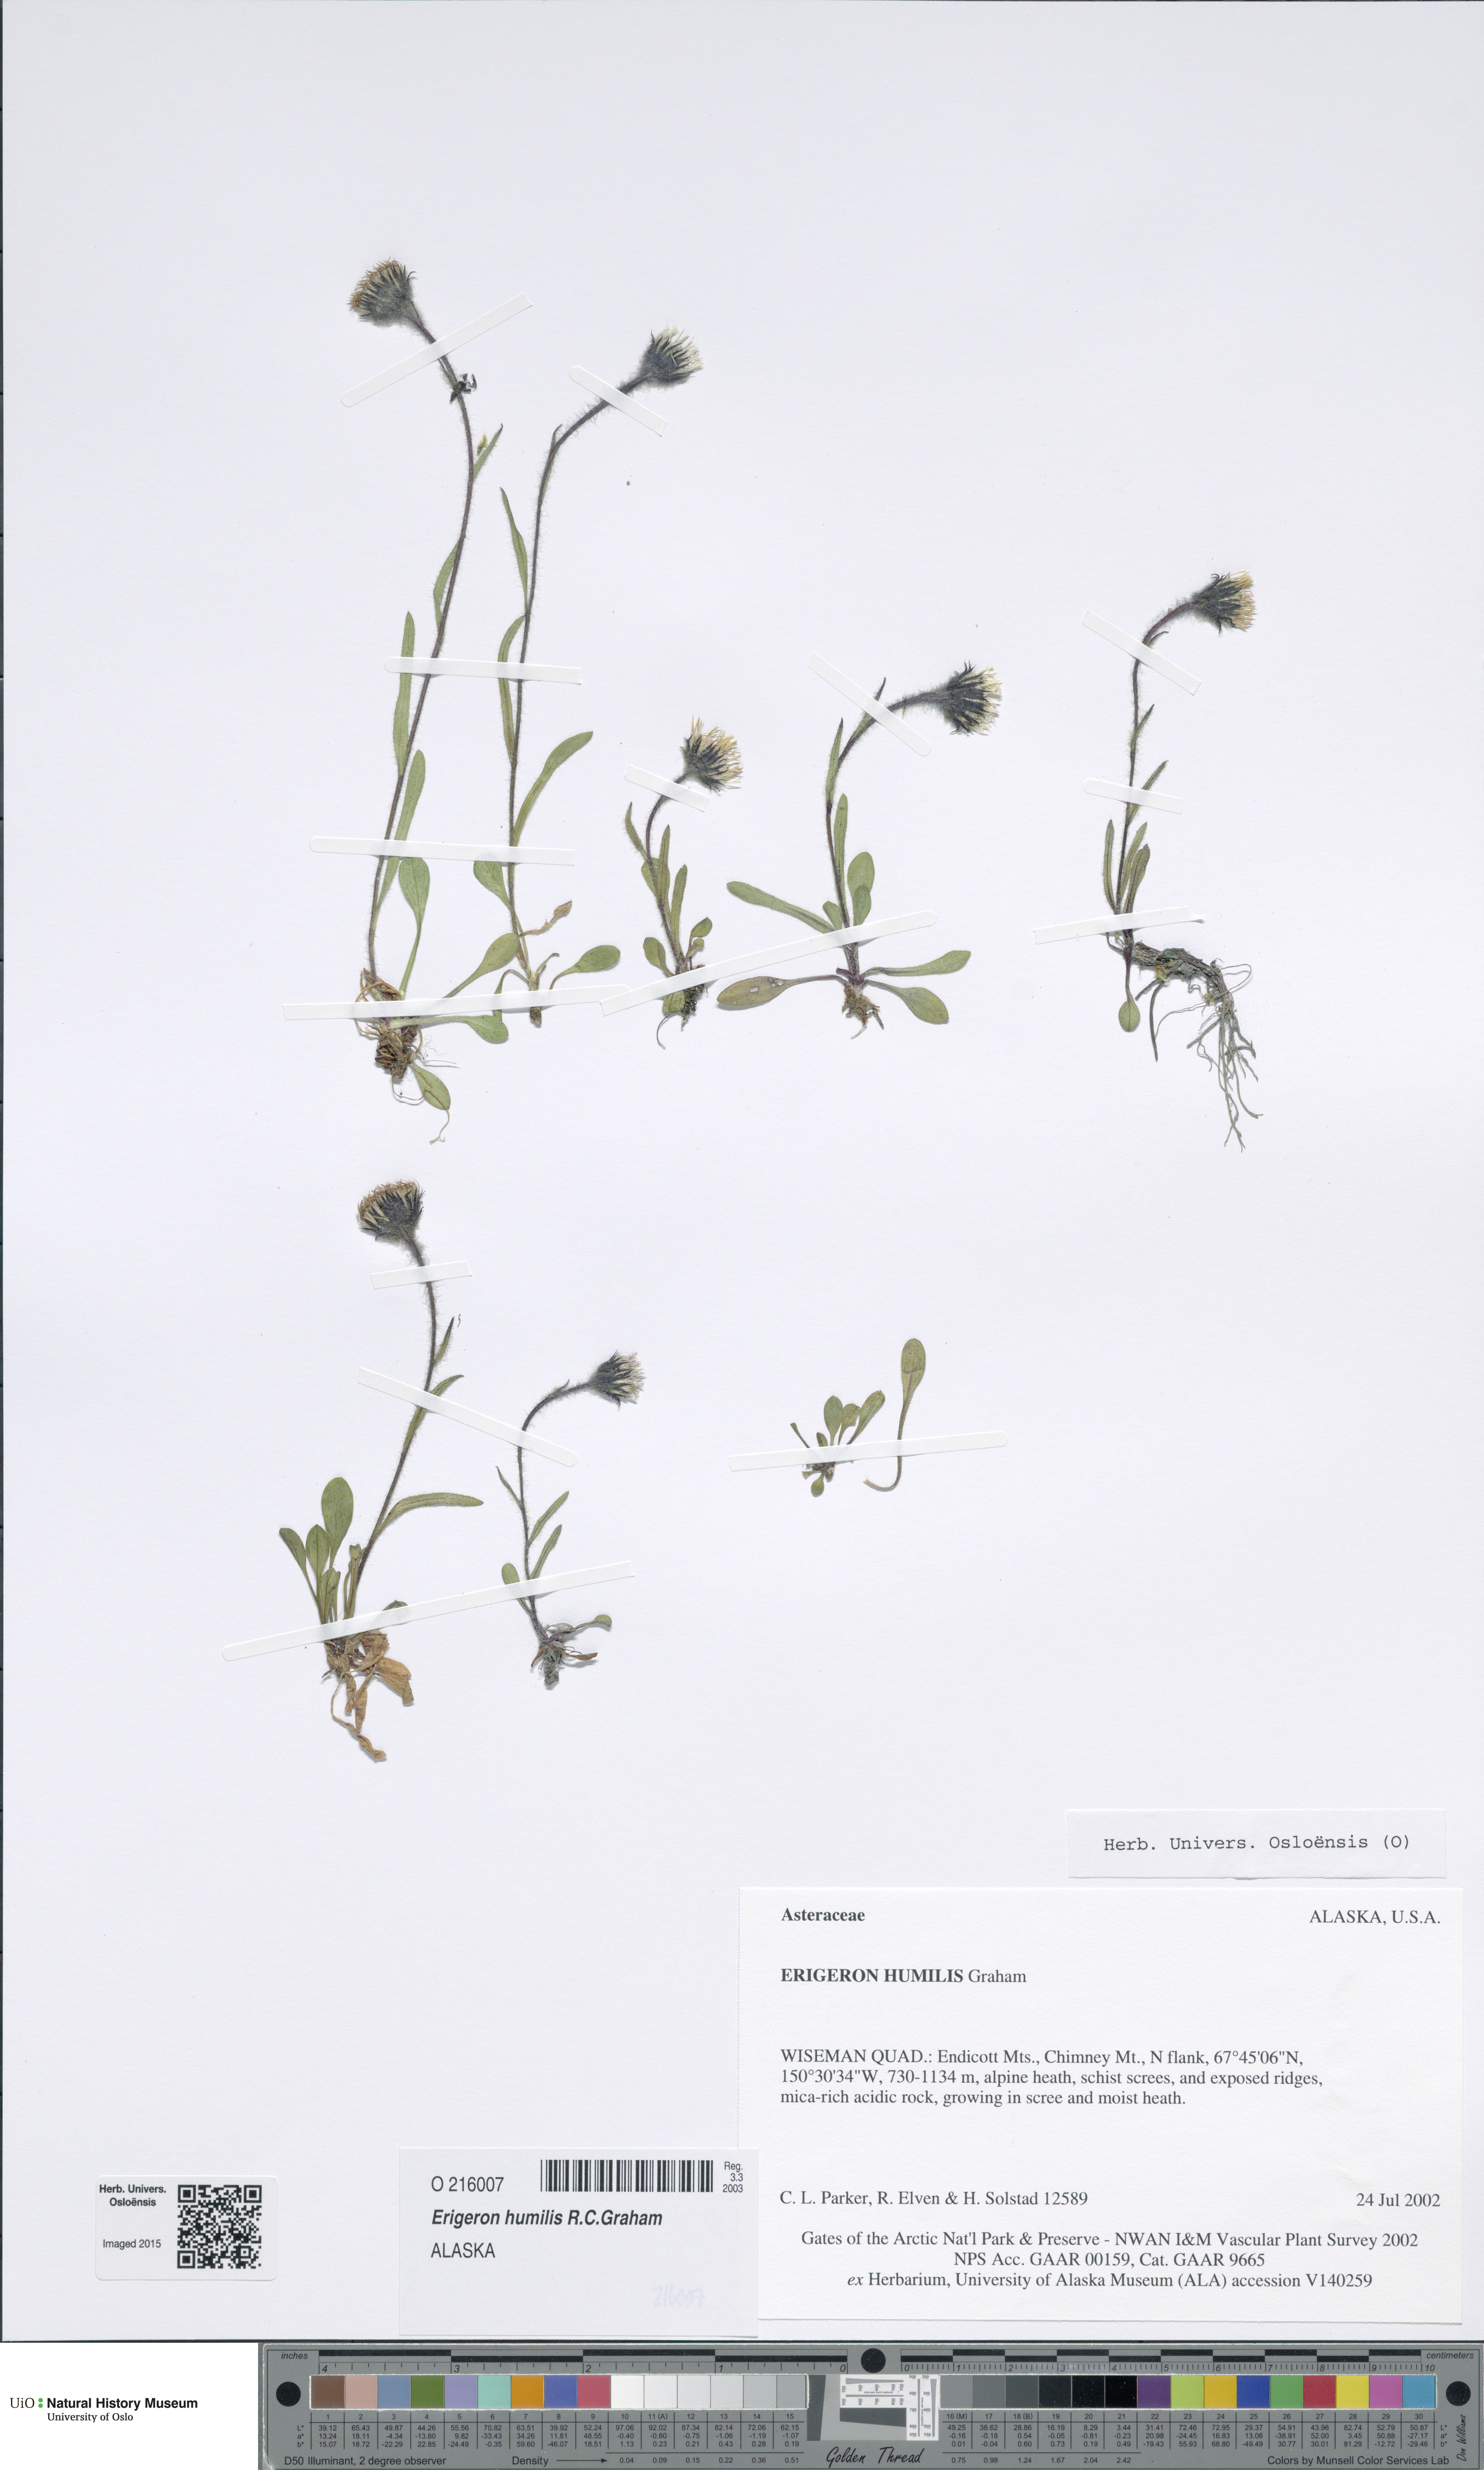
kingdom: Plantae
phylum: Tracheophyta
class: Magnoliopsida
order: Asterales
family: Asteraceae
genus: Erigeron
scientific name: Erigeron humilis
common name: Arctic-alpine fleabane
